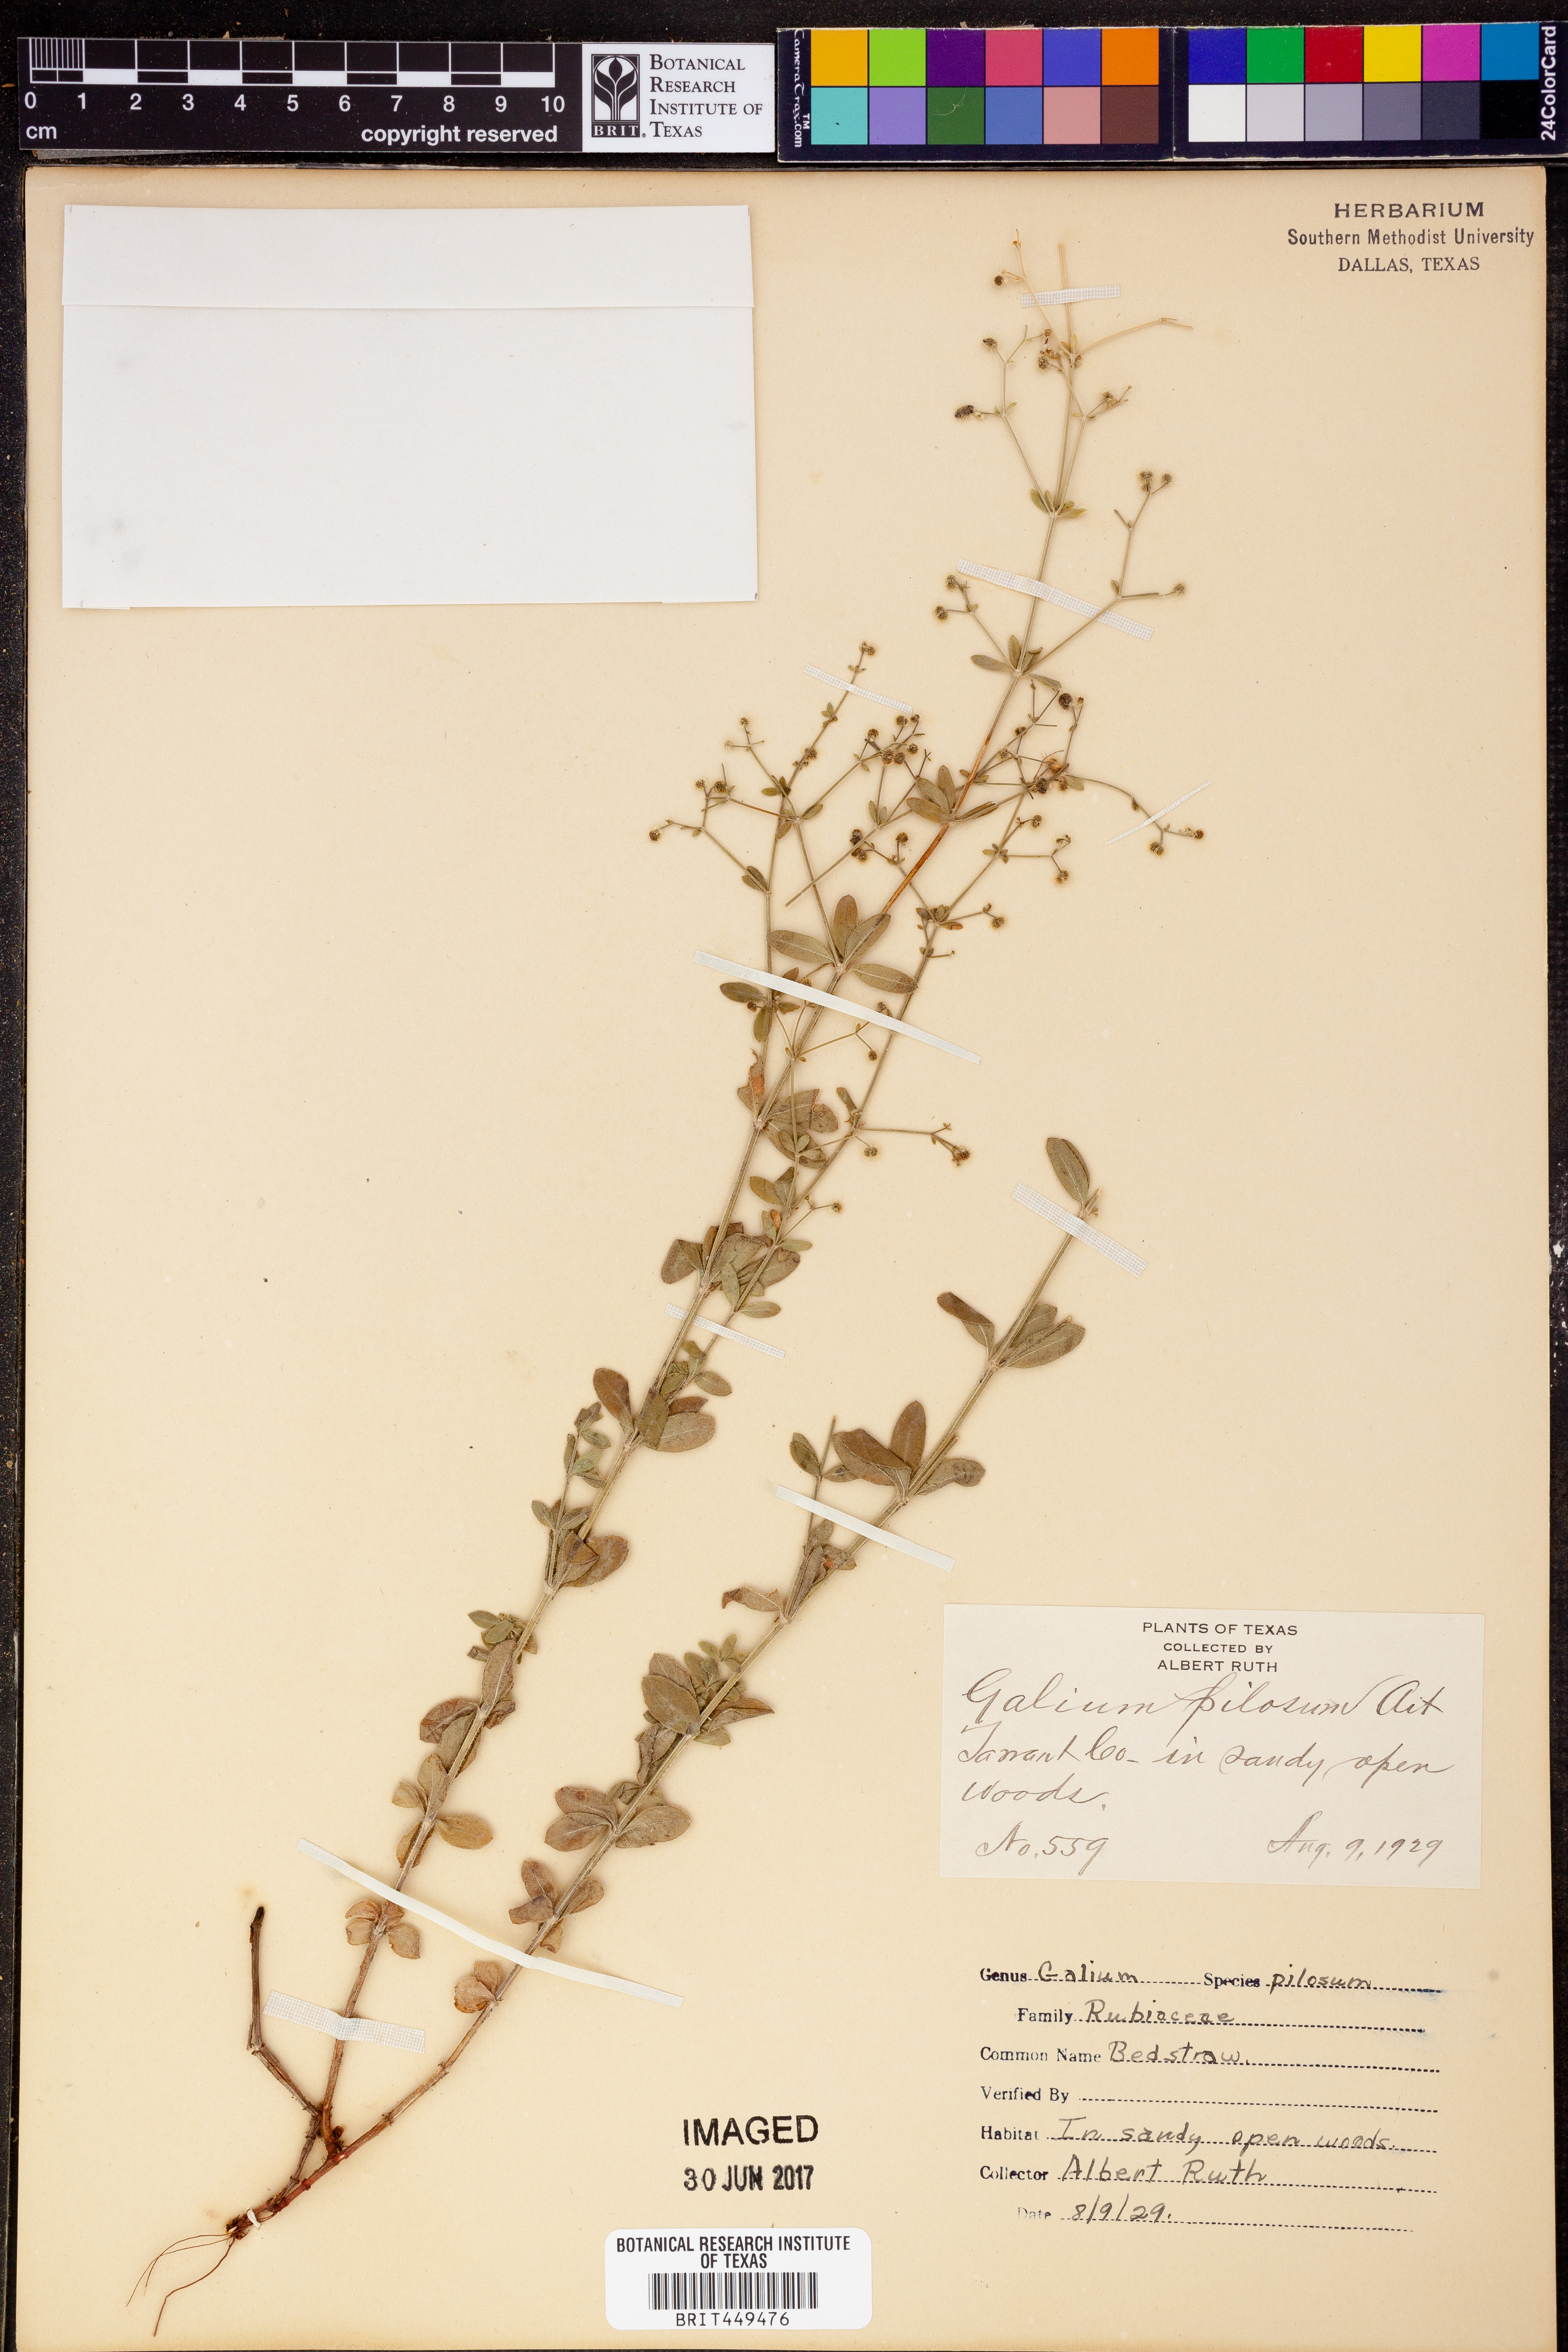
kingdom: Plantae
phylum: Tracheophyta
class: Magnoliopsida
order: Gentianales
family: Rubiaceae
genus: Galium
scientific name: Galium pilosum
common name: Hairy bedstraw
